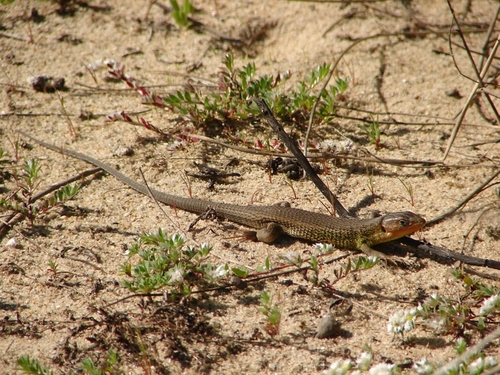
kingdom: Animalia
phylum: Chordata
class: Squamata
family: Lacertidae
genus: Psammodromus
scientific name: Psammodromus algirus
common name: Algerian psammodromus
